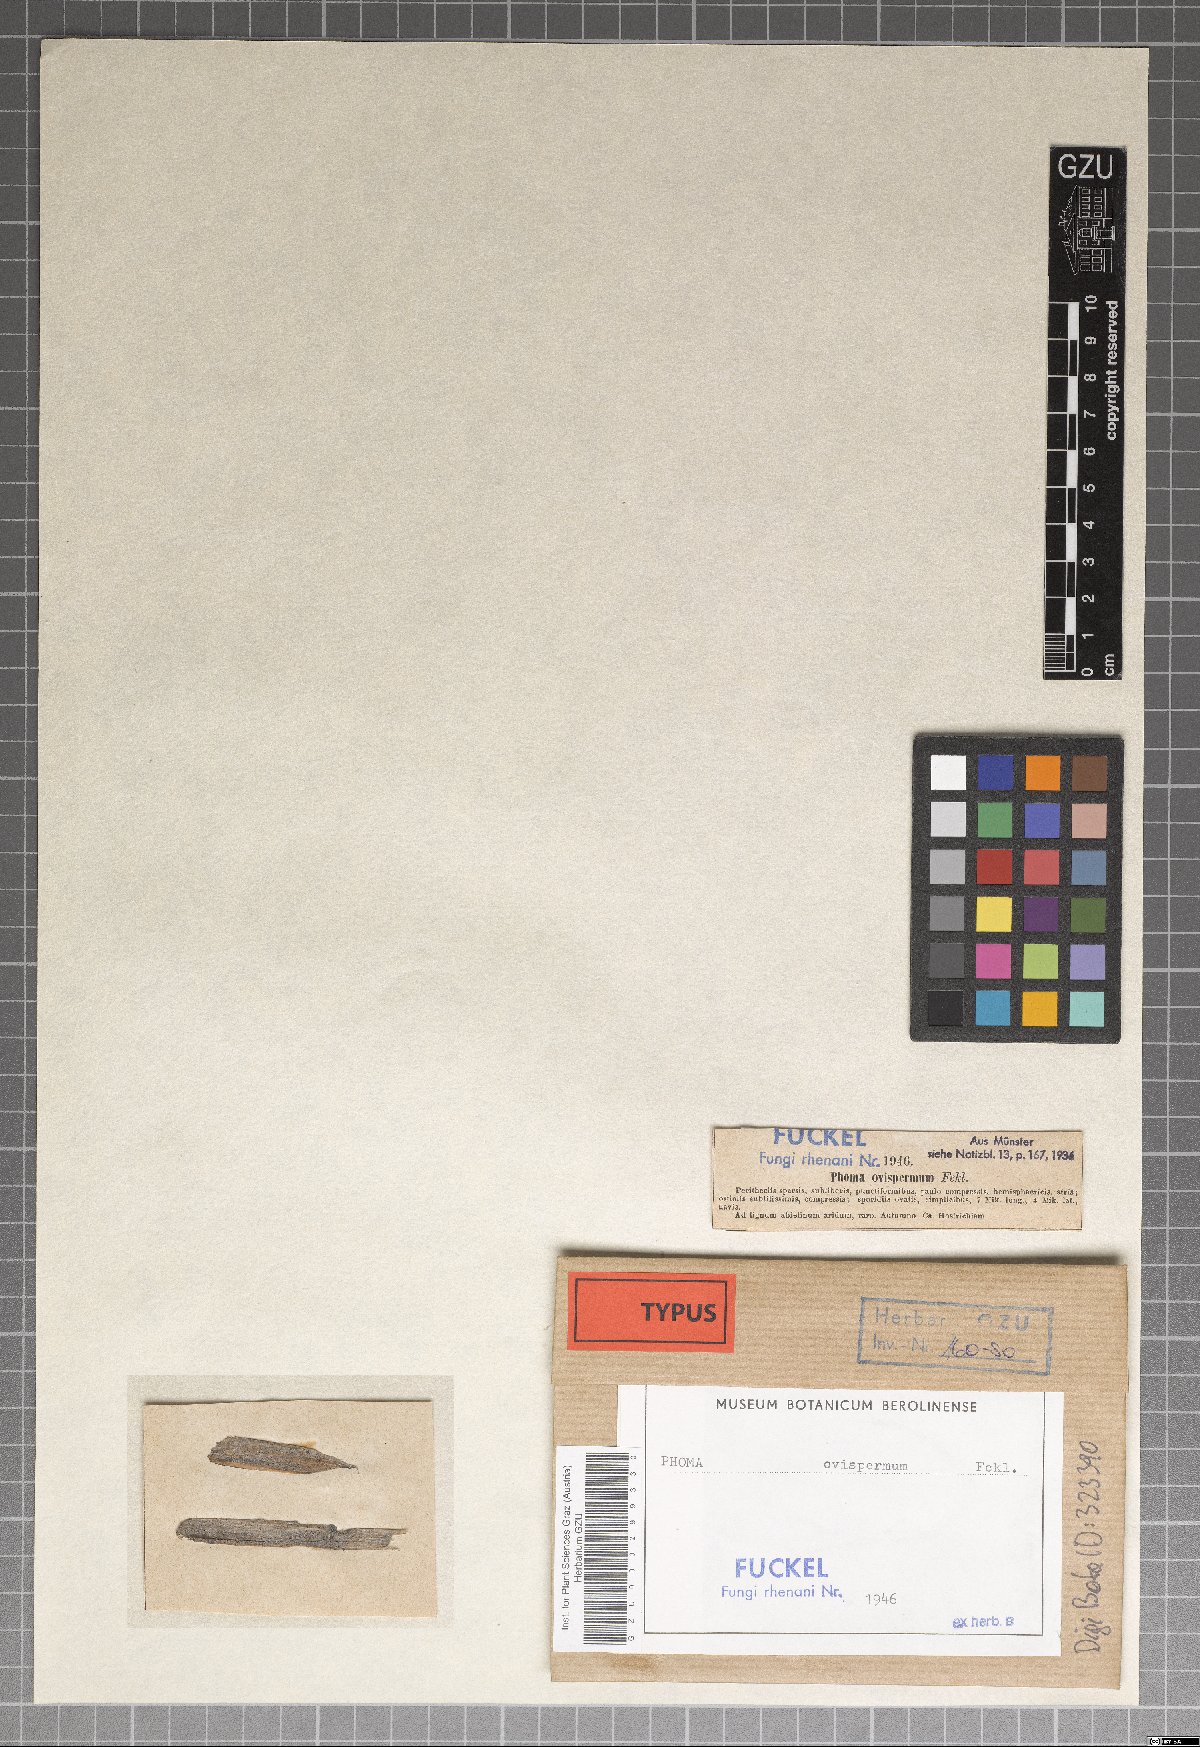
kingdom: Fungi
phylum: Ascomycota
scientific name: Ascomycota
